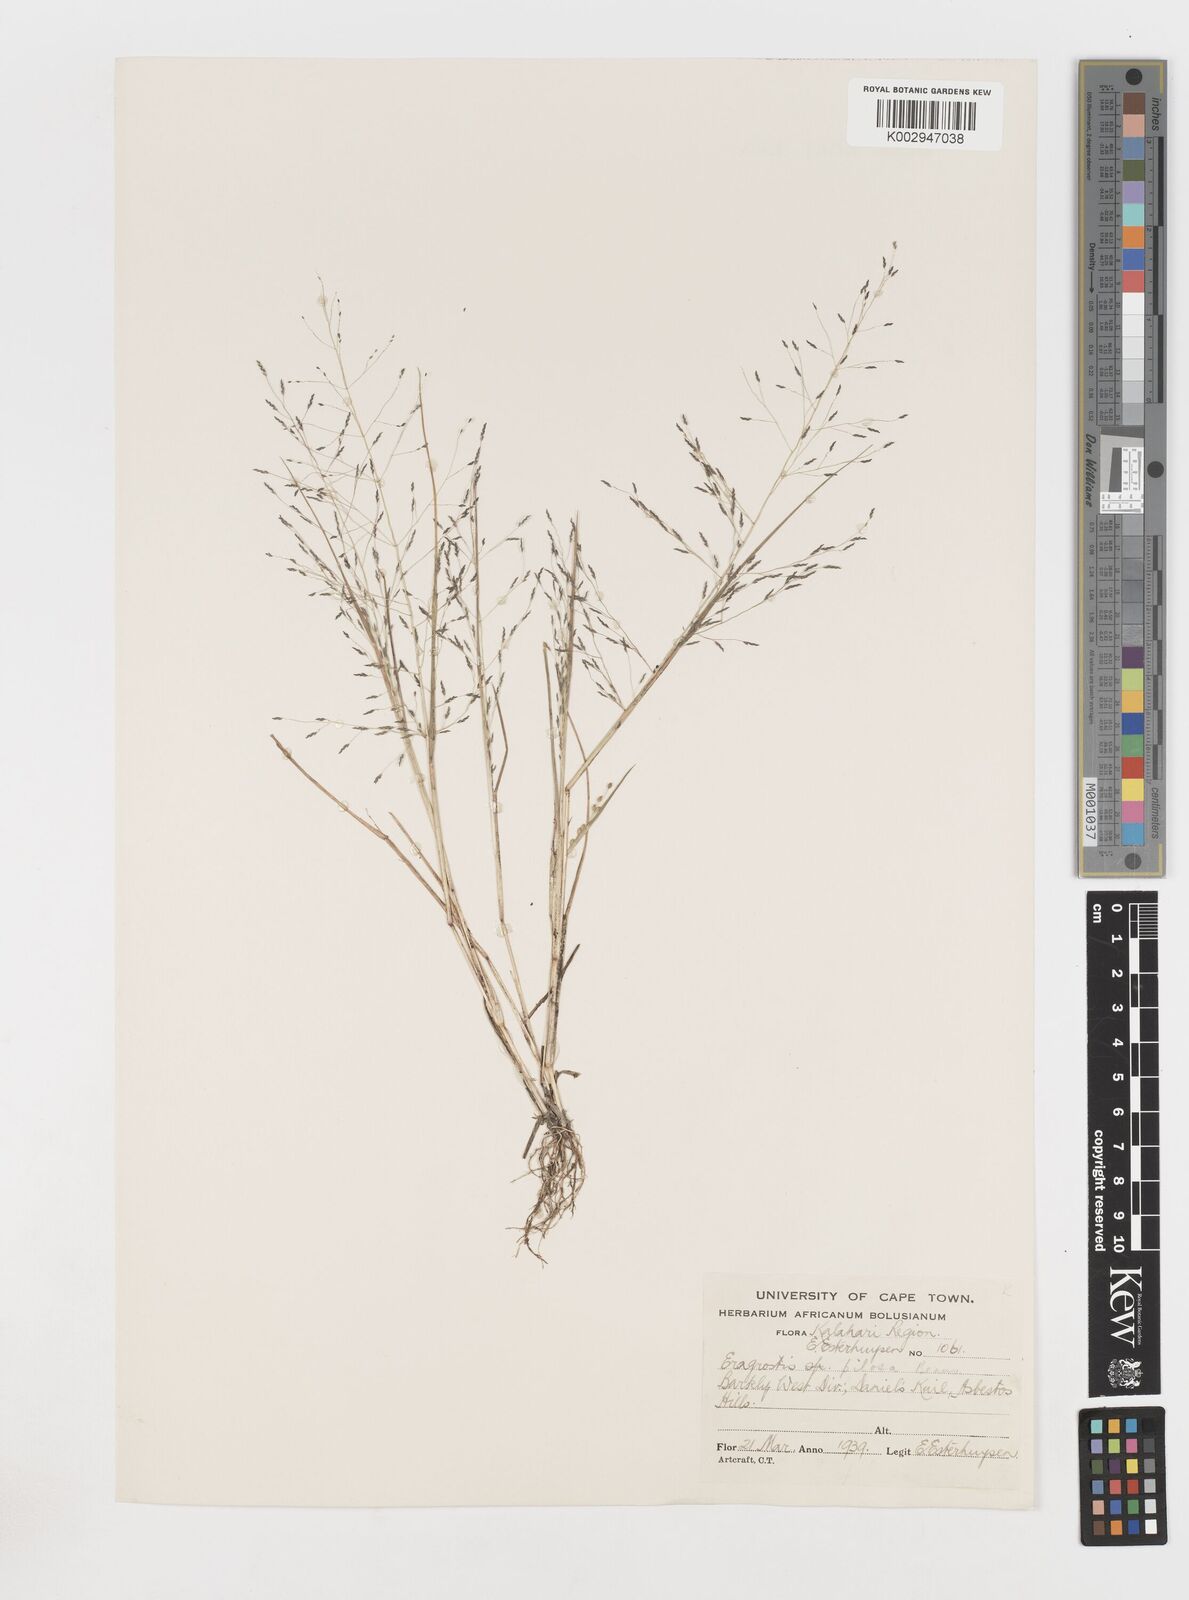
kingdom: Plantae
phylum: Tracheophyta
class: Liliopsida
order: Poales
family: Poaceae
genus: Eragrostis
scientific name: Eragrostis pilosa
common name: Indian lovegrass
